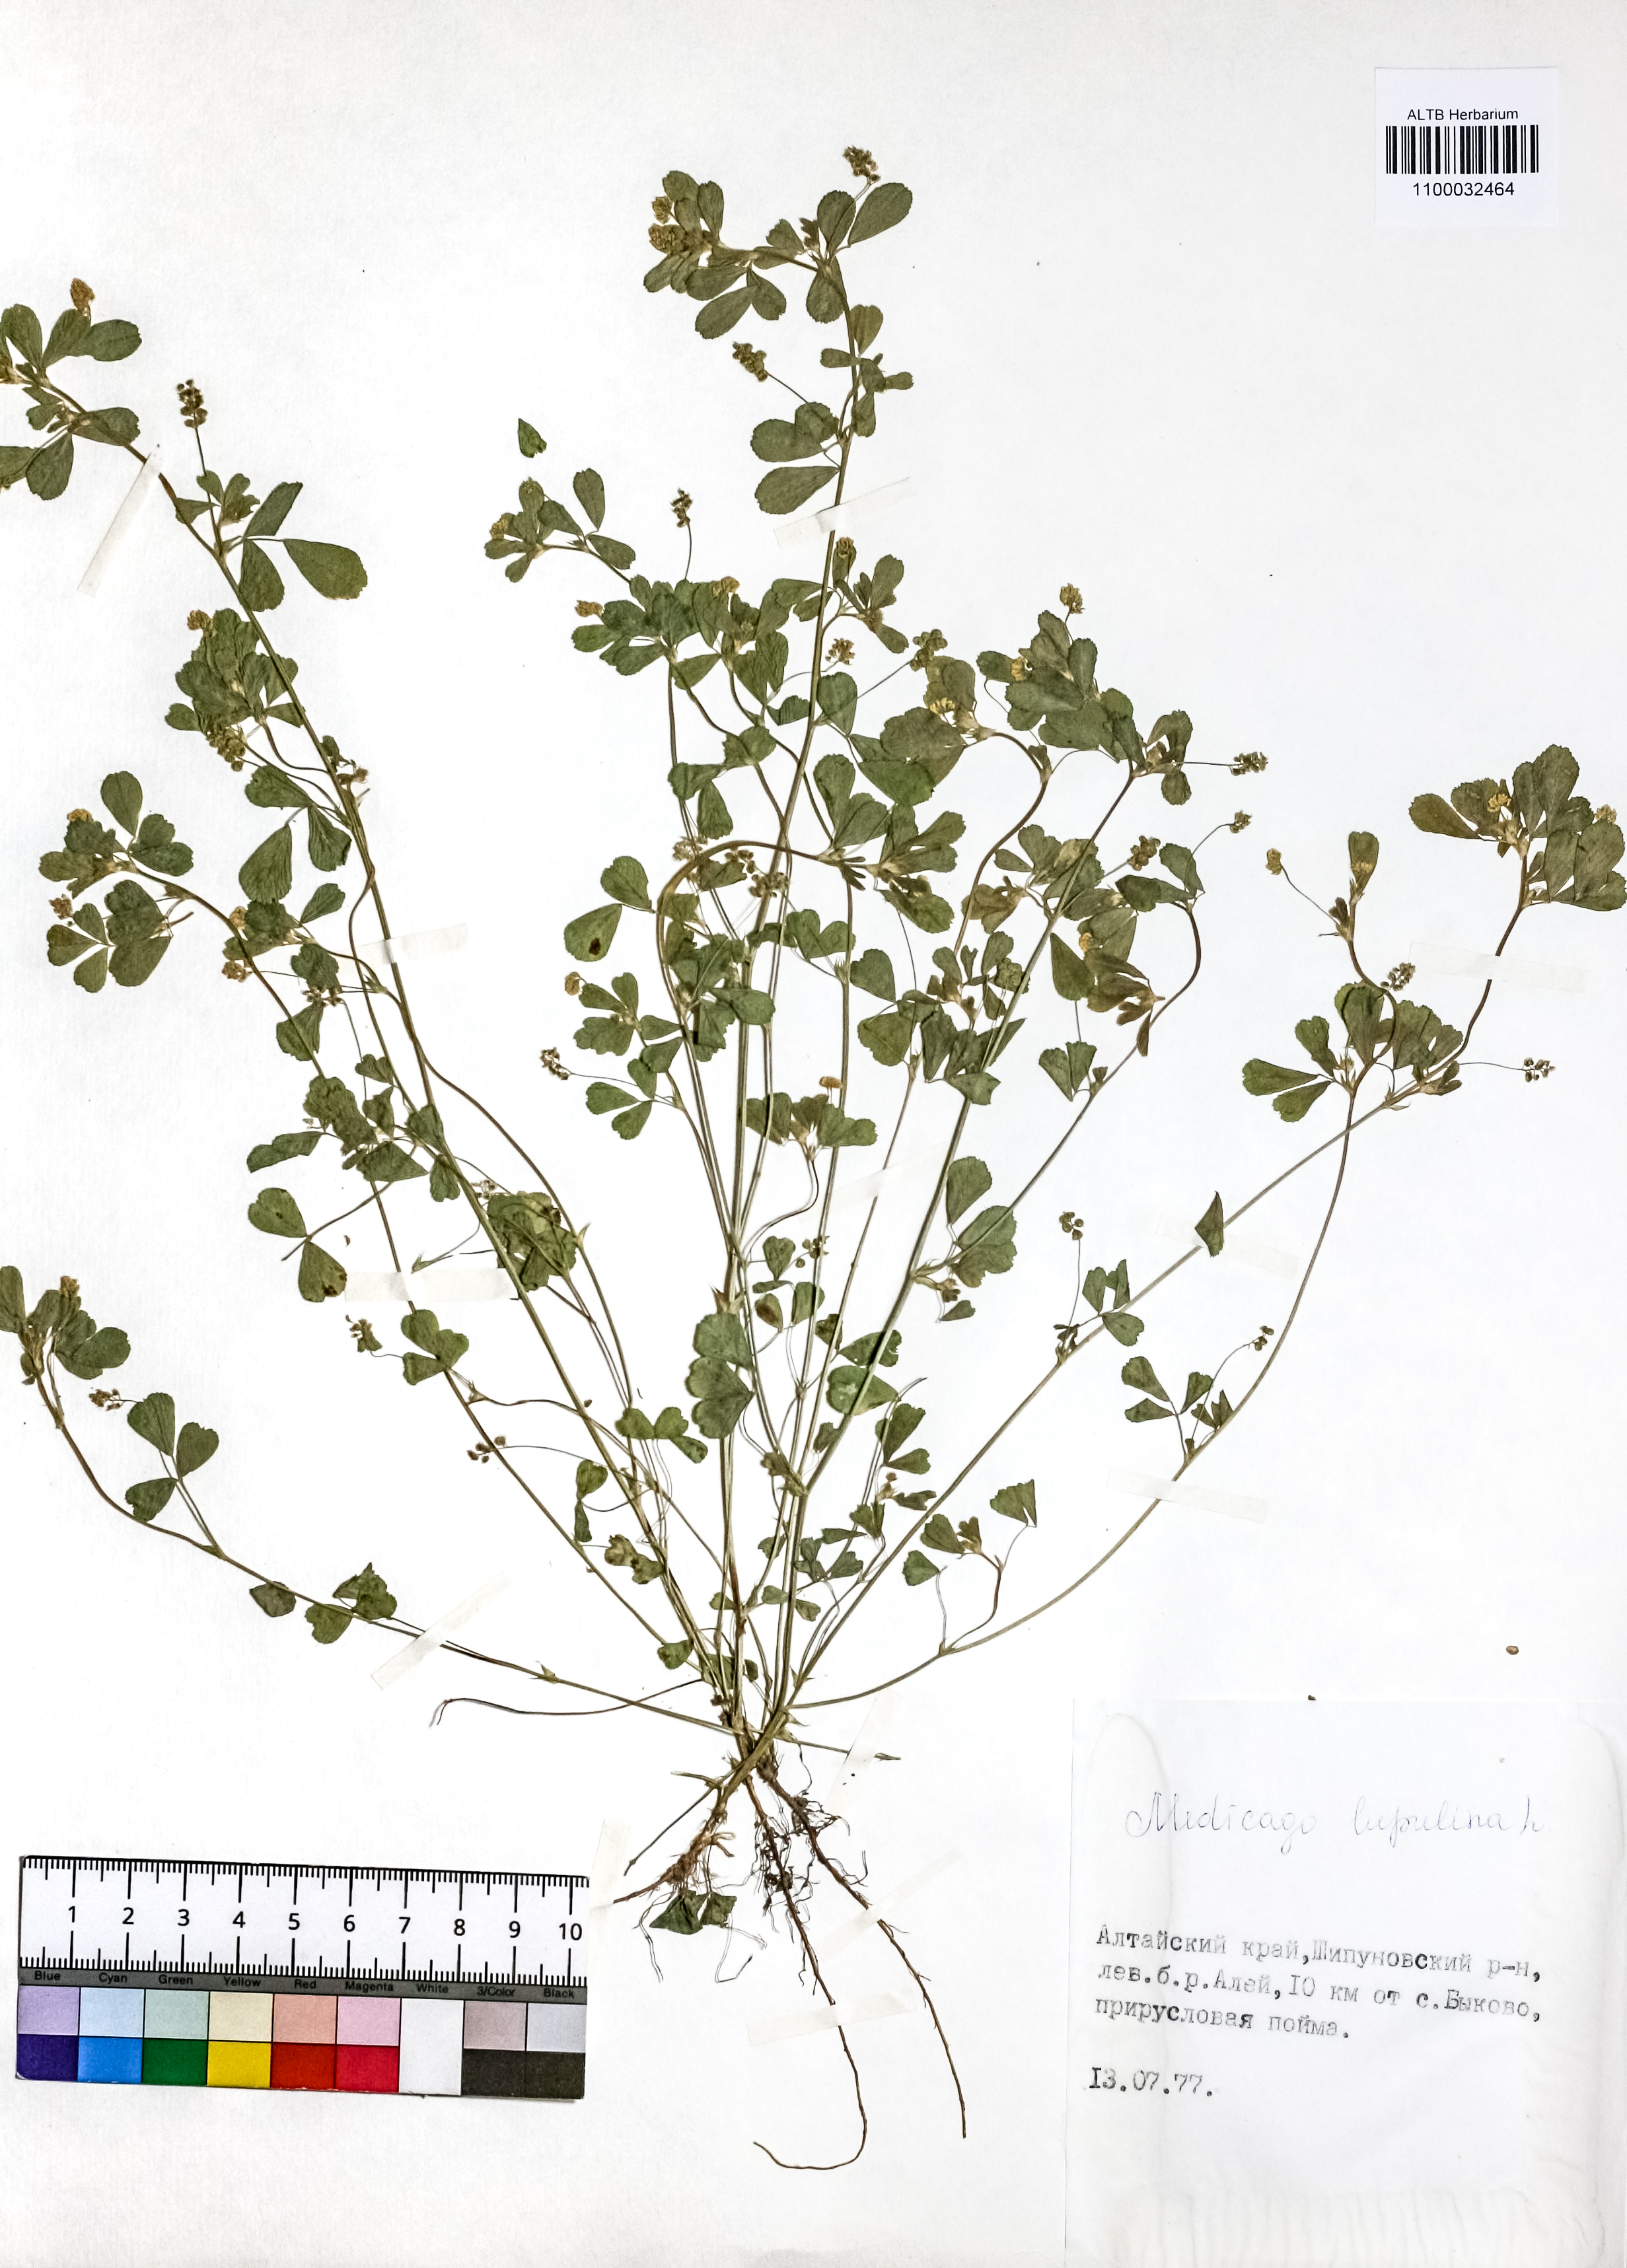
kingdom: Plantae
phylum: Tracheophyta
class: Magnoliopsida
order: Fabales
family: Fabaceae
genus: Medicago
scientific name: Medicago lupulina
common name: Black medick
